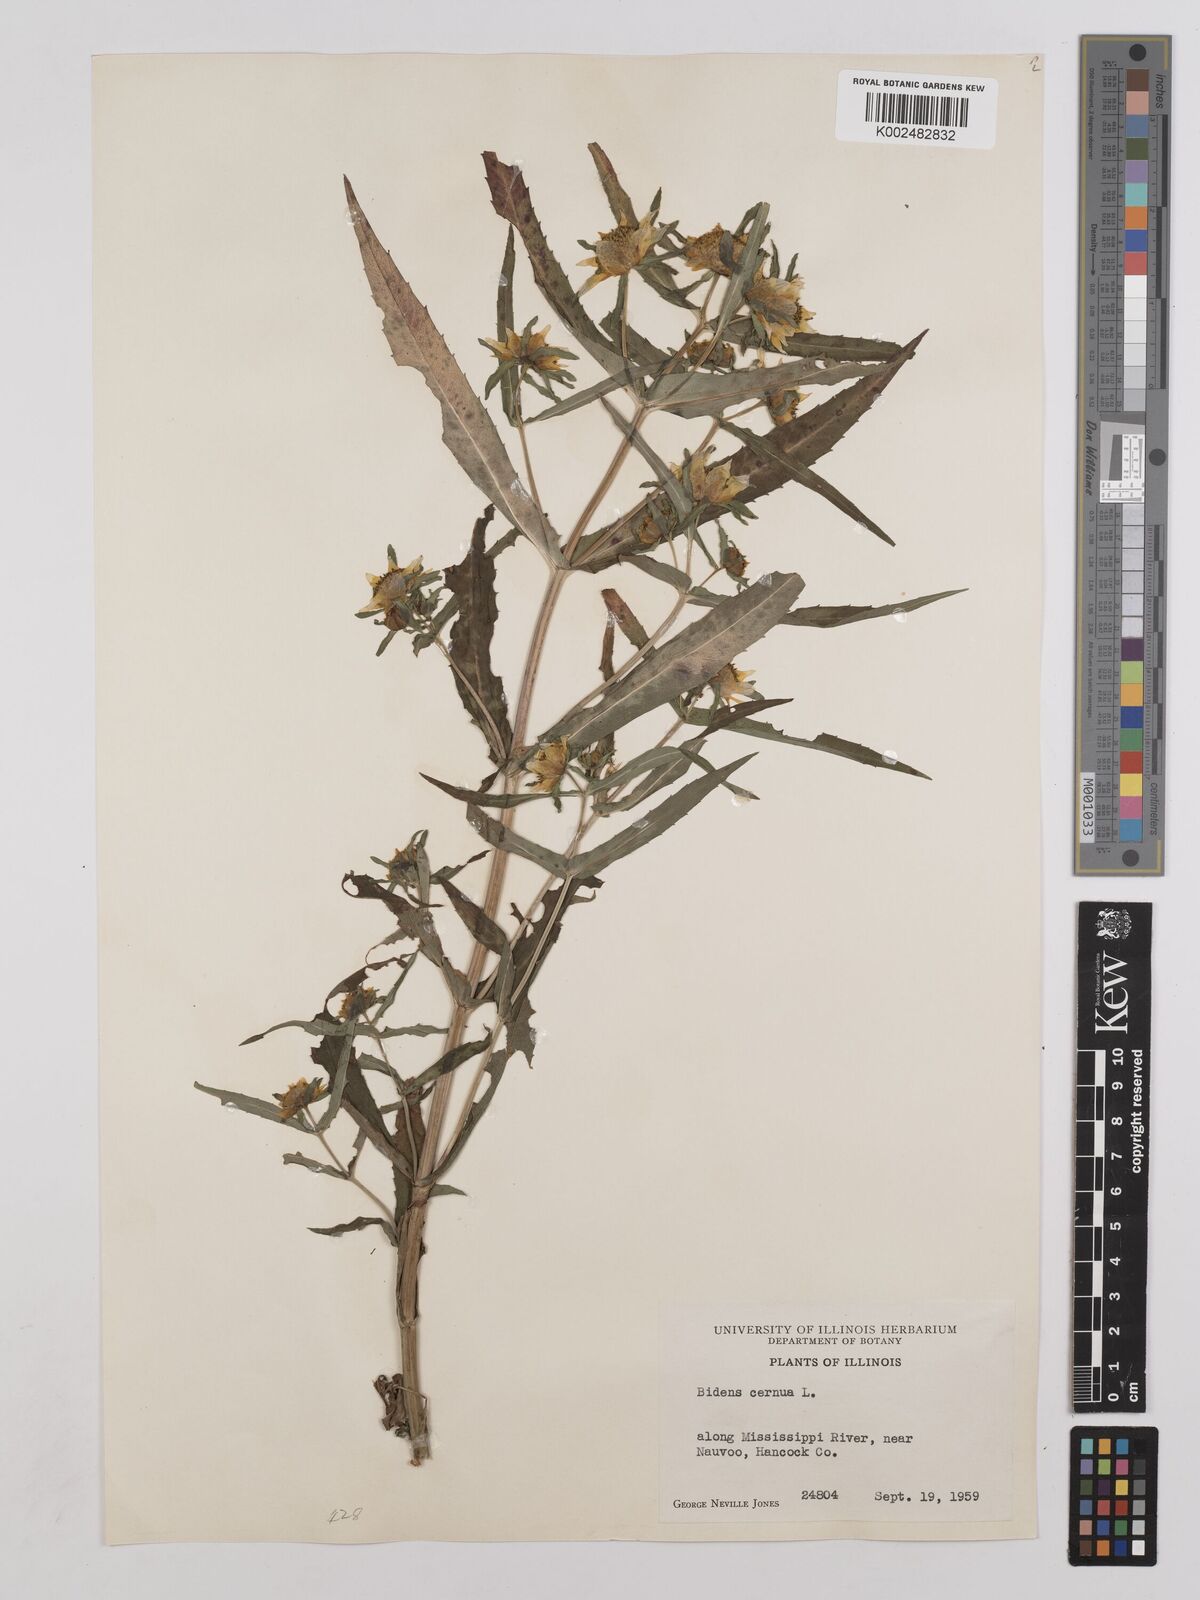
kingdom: Plantae
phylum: Tracheophyta
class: Magnoliopsida
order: Asterales
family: Asteraceae
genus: Bidens
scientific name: Bidens connata
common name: London bur-marigold
